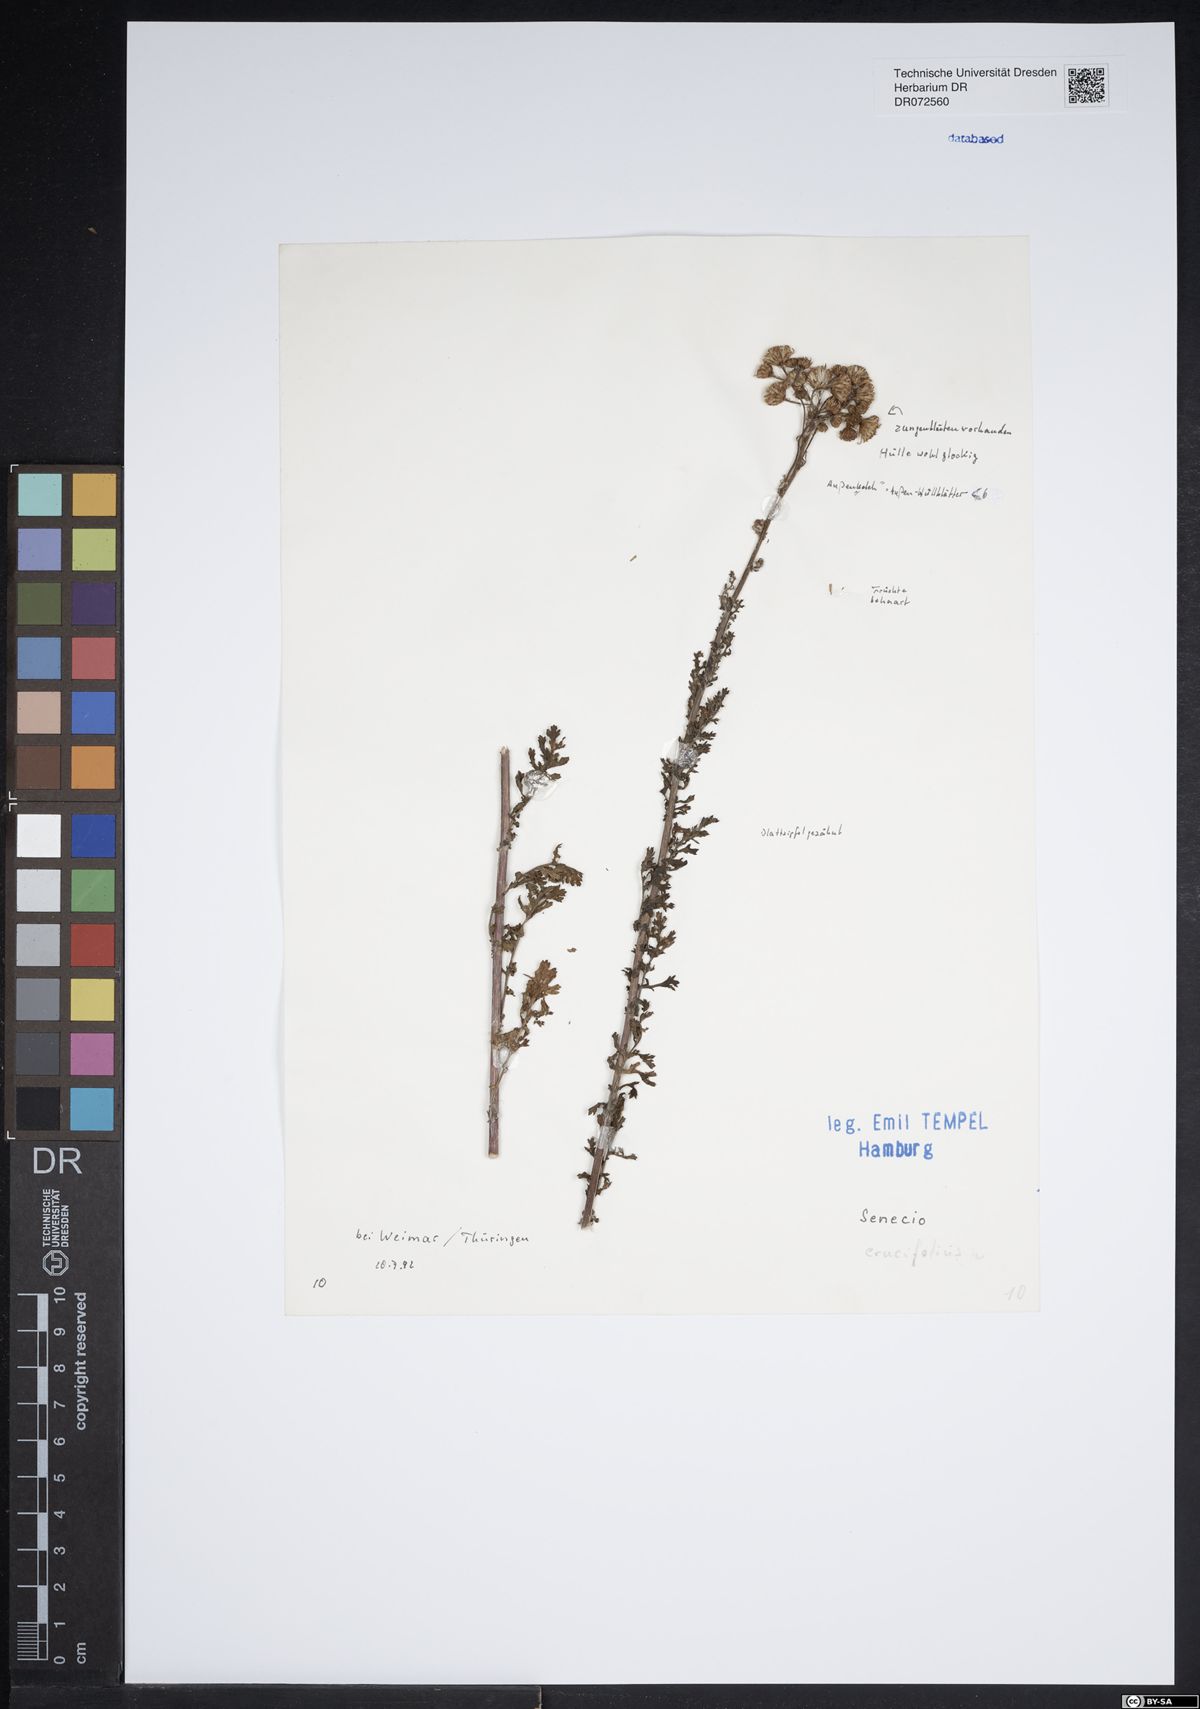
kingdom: Plantae
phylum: Tracheophyta
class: Magnoliopsida
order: Asterales
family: Asteraceae
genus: Jacobaea
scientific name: Jacobaea erucifolia
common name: Hoary ragwort
